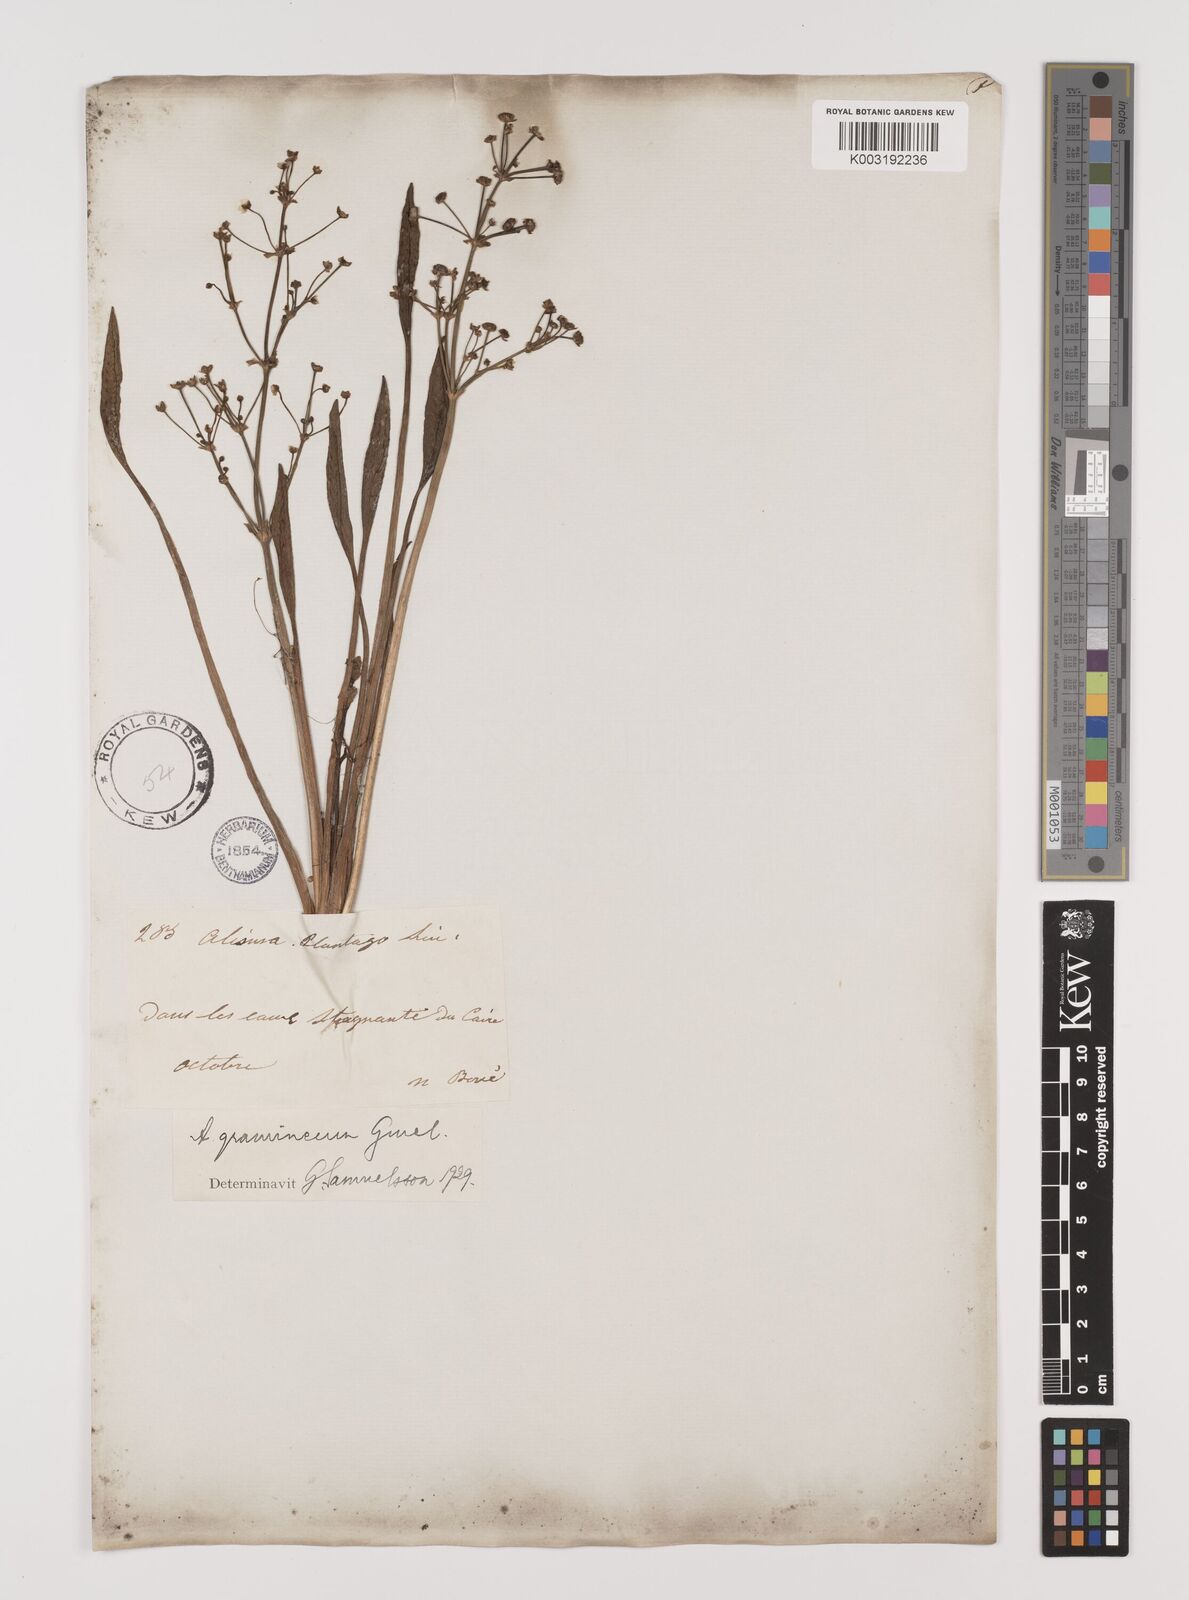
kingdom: Plantae
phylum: Tracheophyta
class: Liliopsida
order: Alismatales
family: Alismataceae
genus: Alisma
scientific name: Alisma gramineum
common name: Ribbon-leaved water-plantain
